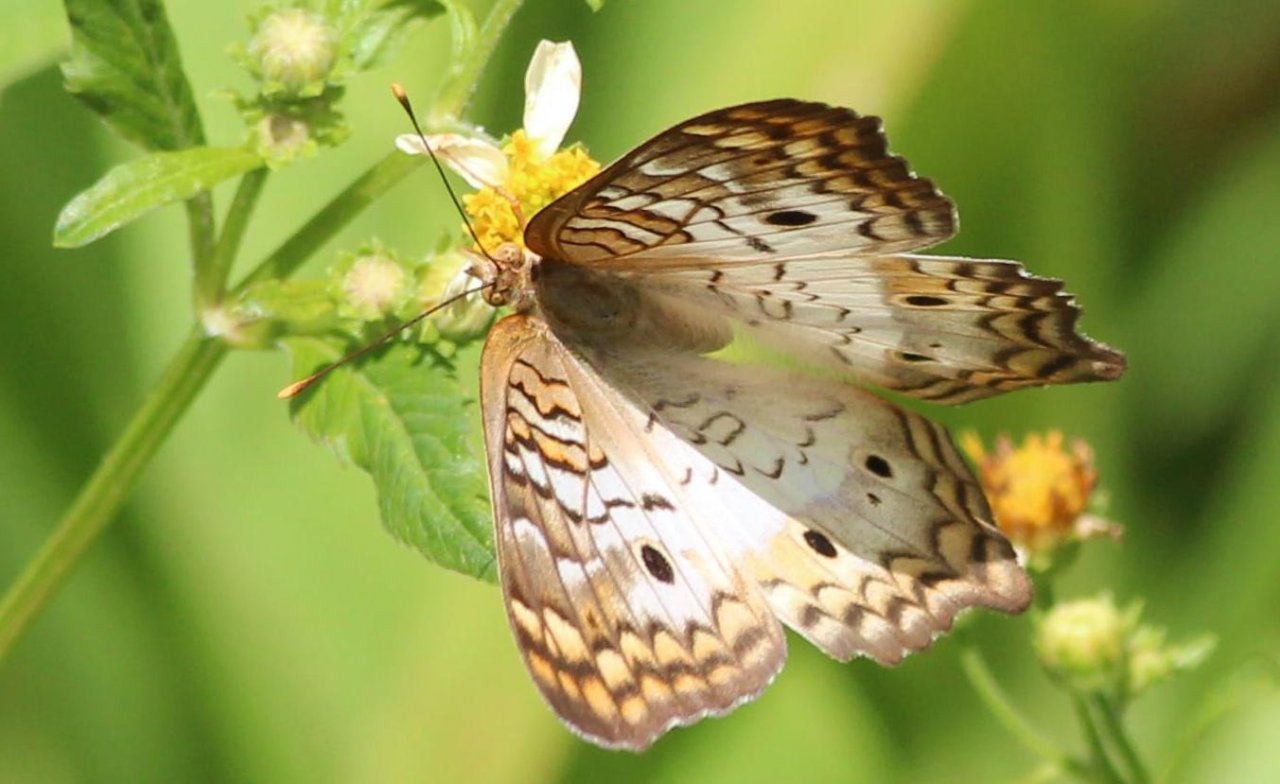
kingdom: Animalia
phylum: Arthropoda
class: Insecta
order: Lepidoptera
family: Nymphalidae
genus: Anartia
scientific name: Anartia jatrophae
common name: White Peacock
